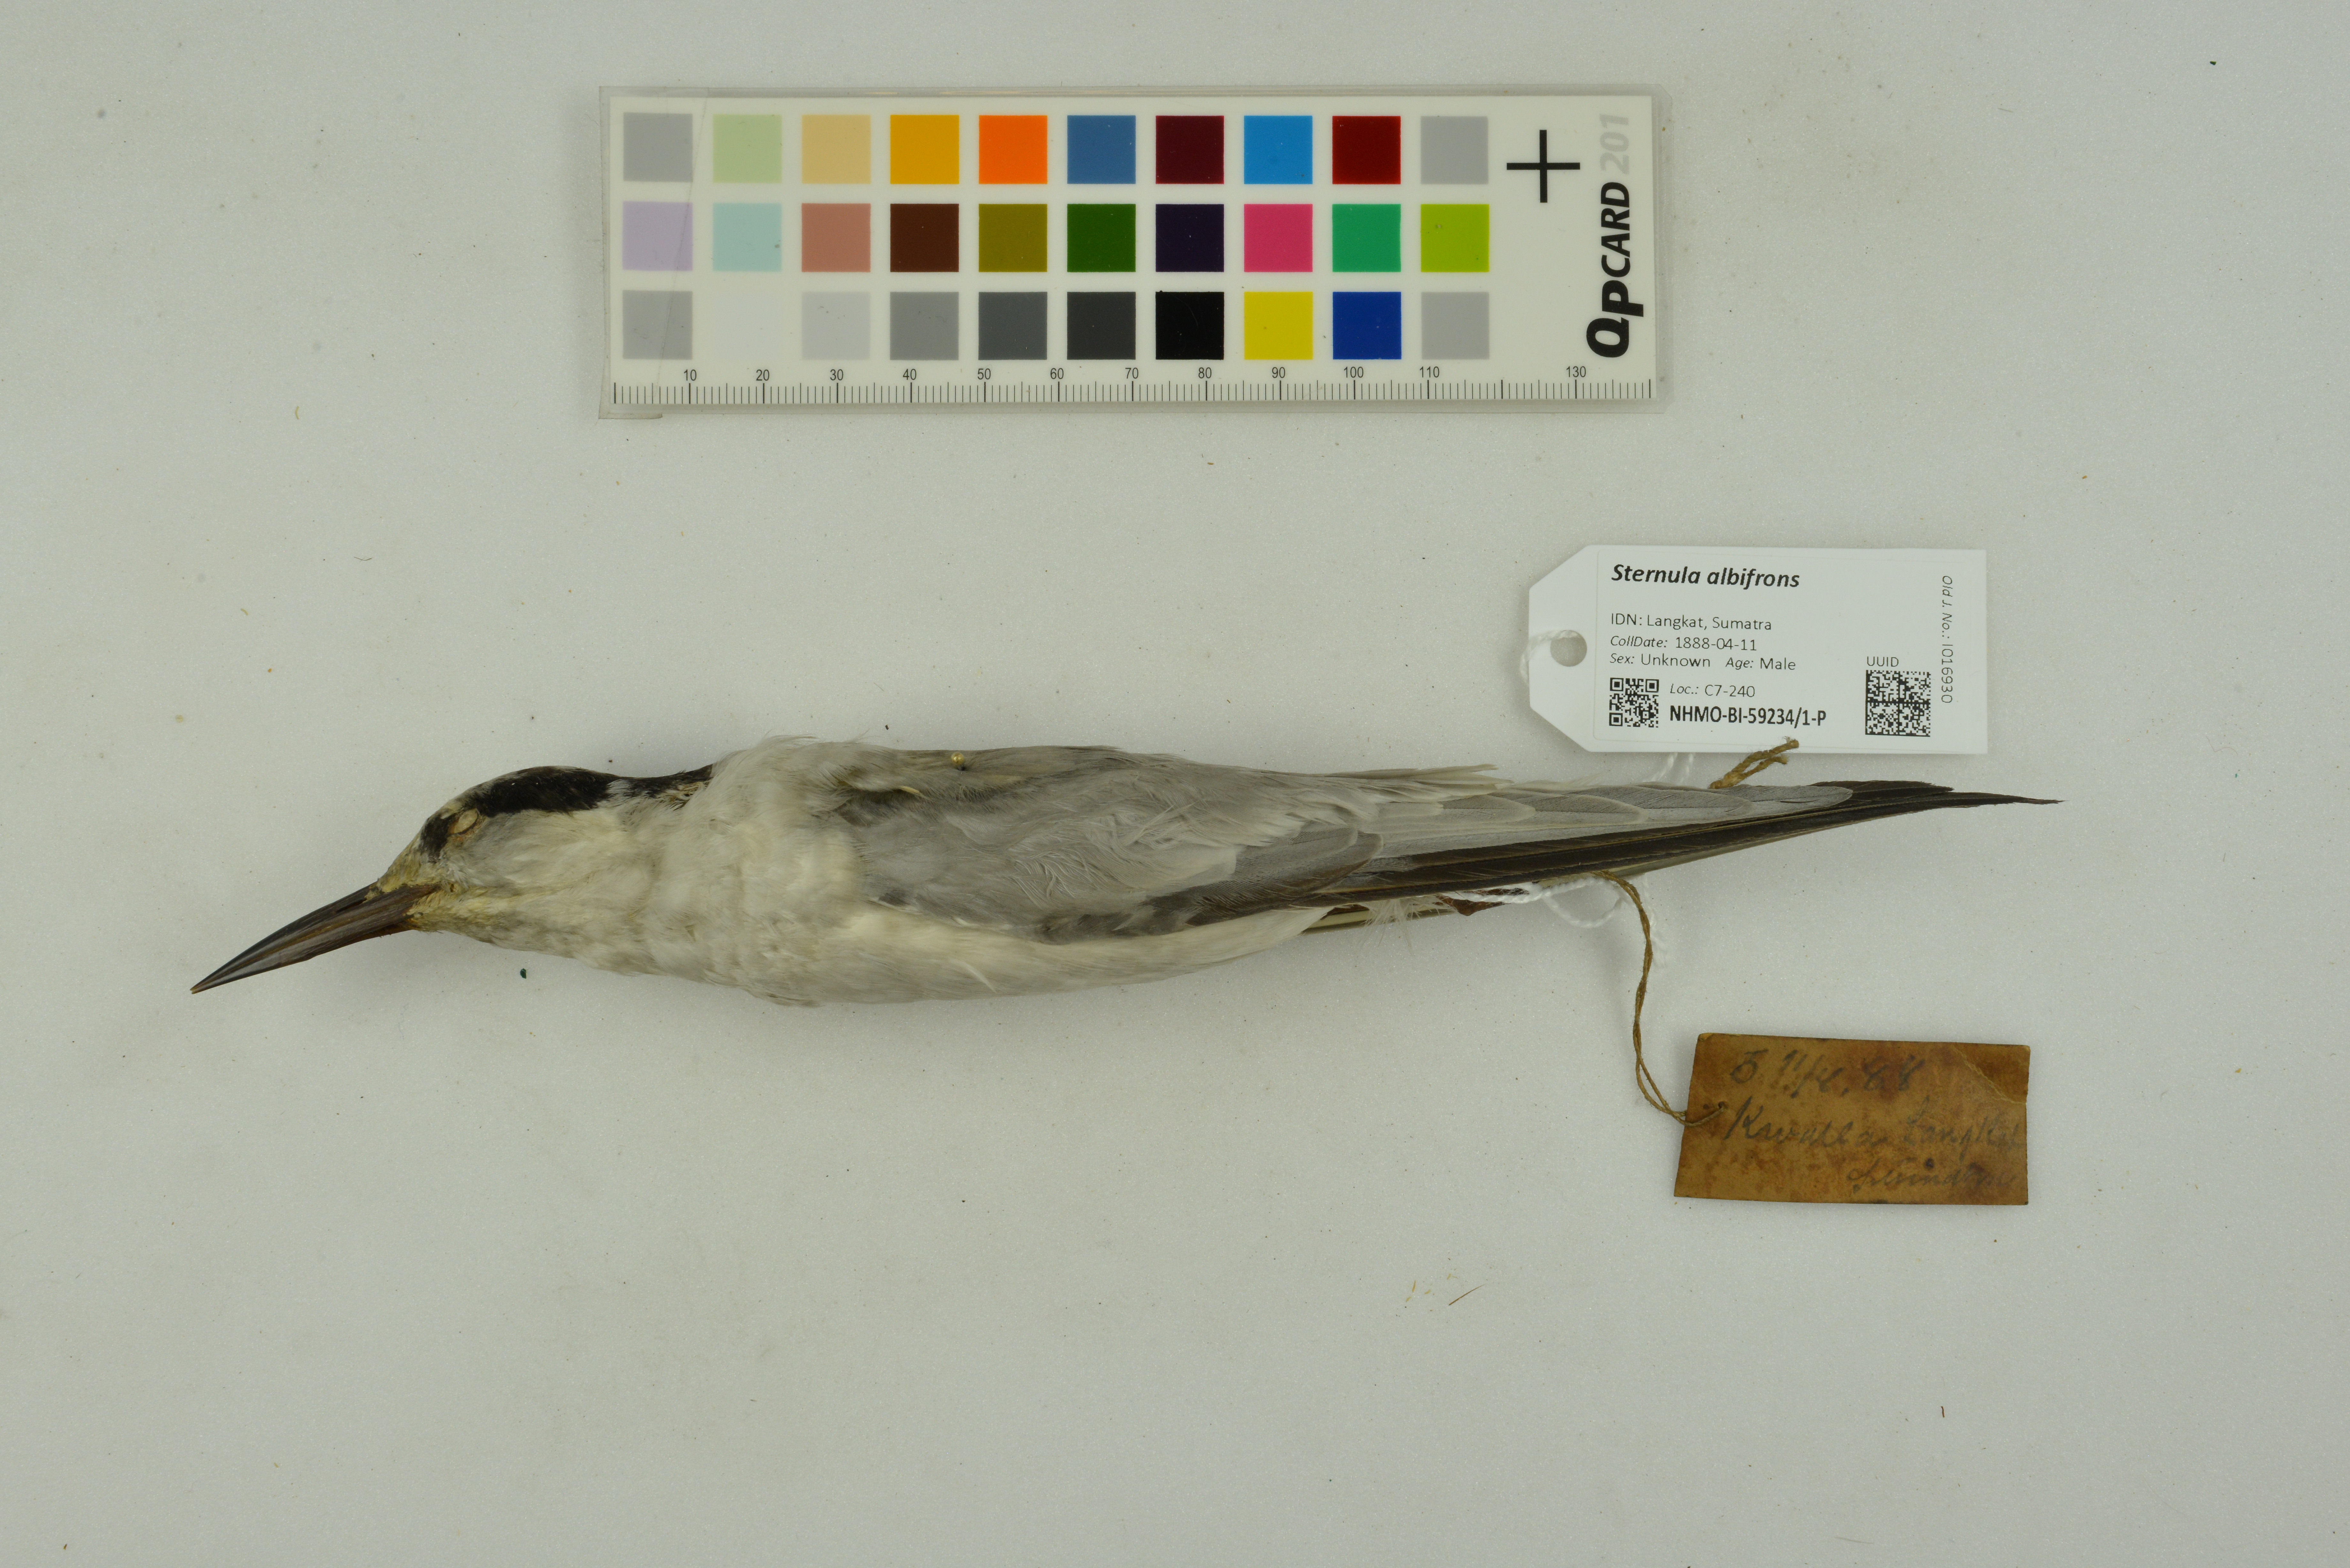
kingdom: Animalia
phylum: Chordata
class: Aves
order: Charadriiformes
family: Laridae
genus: Sternula
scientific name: Sternula albifrons
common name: Little tern
